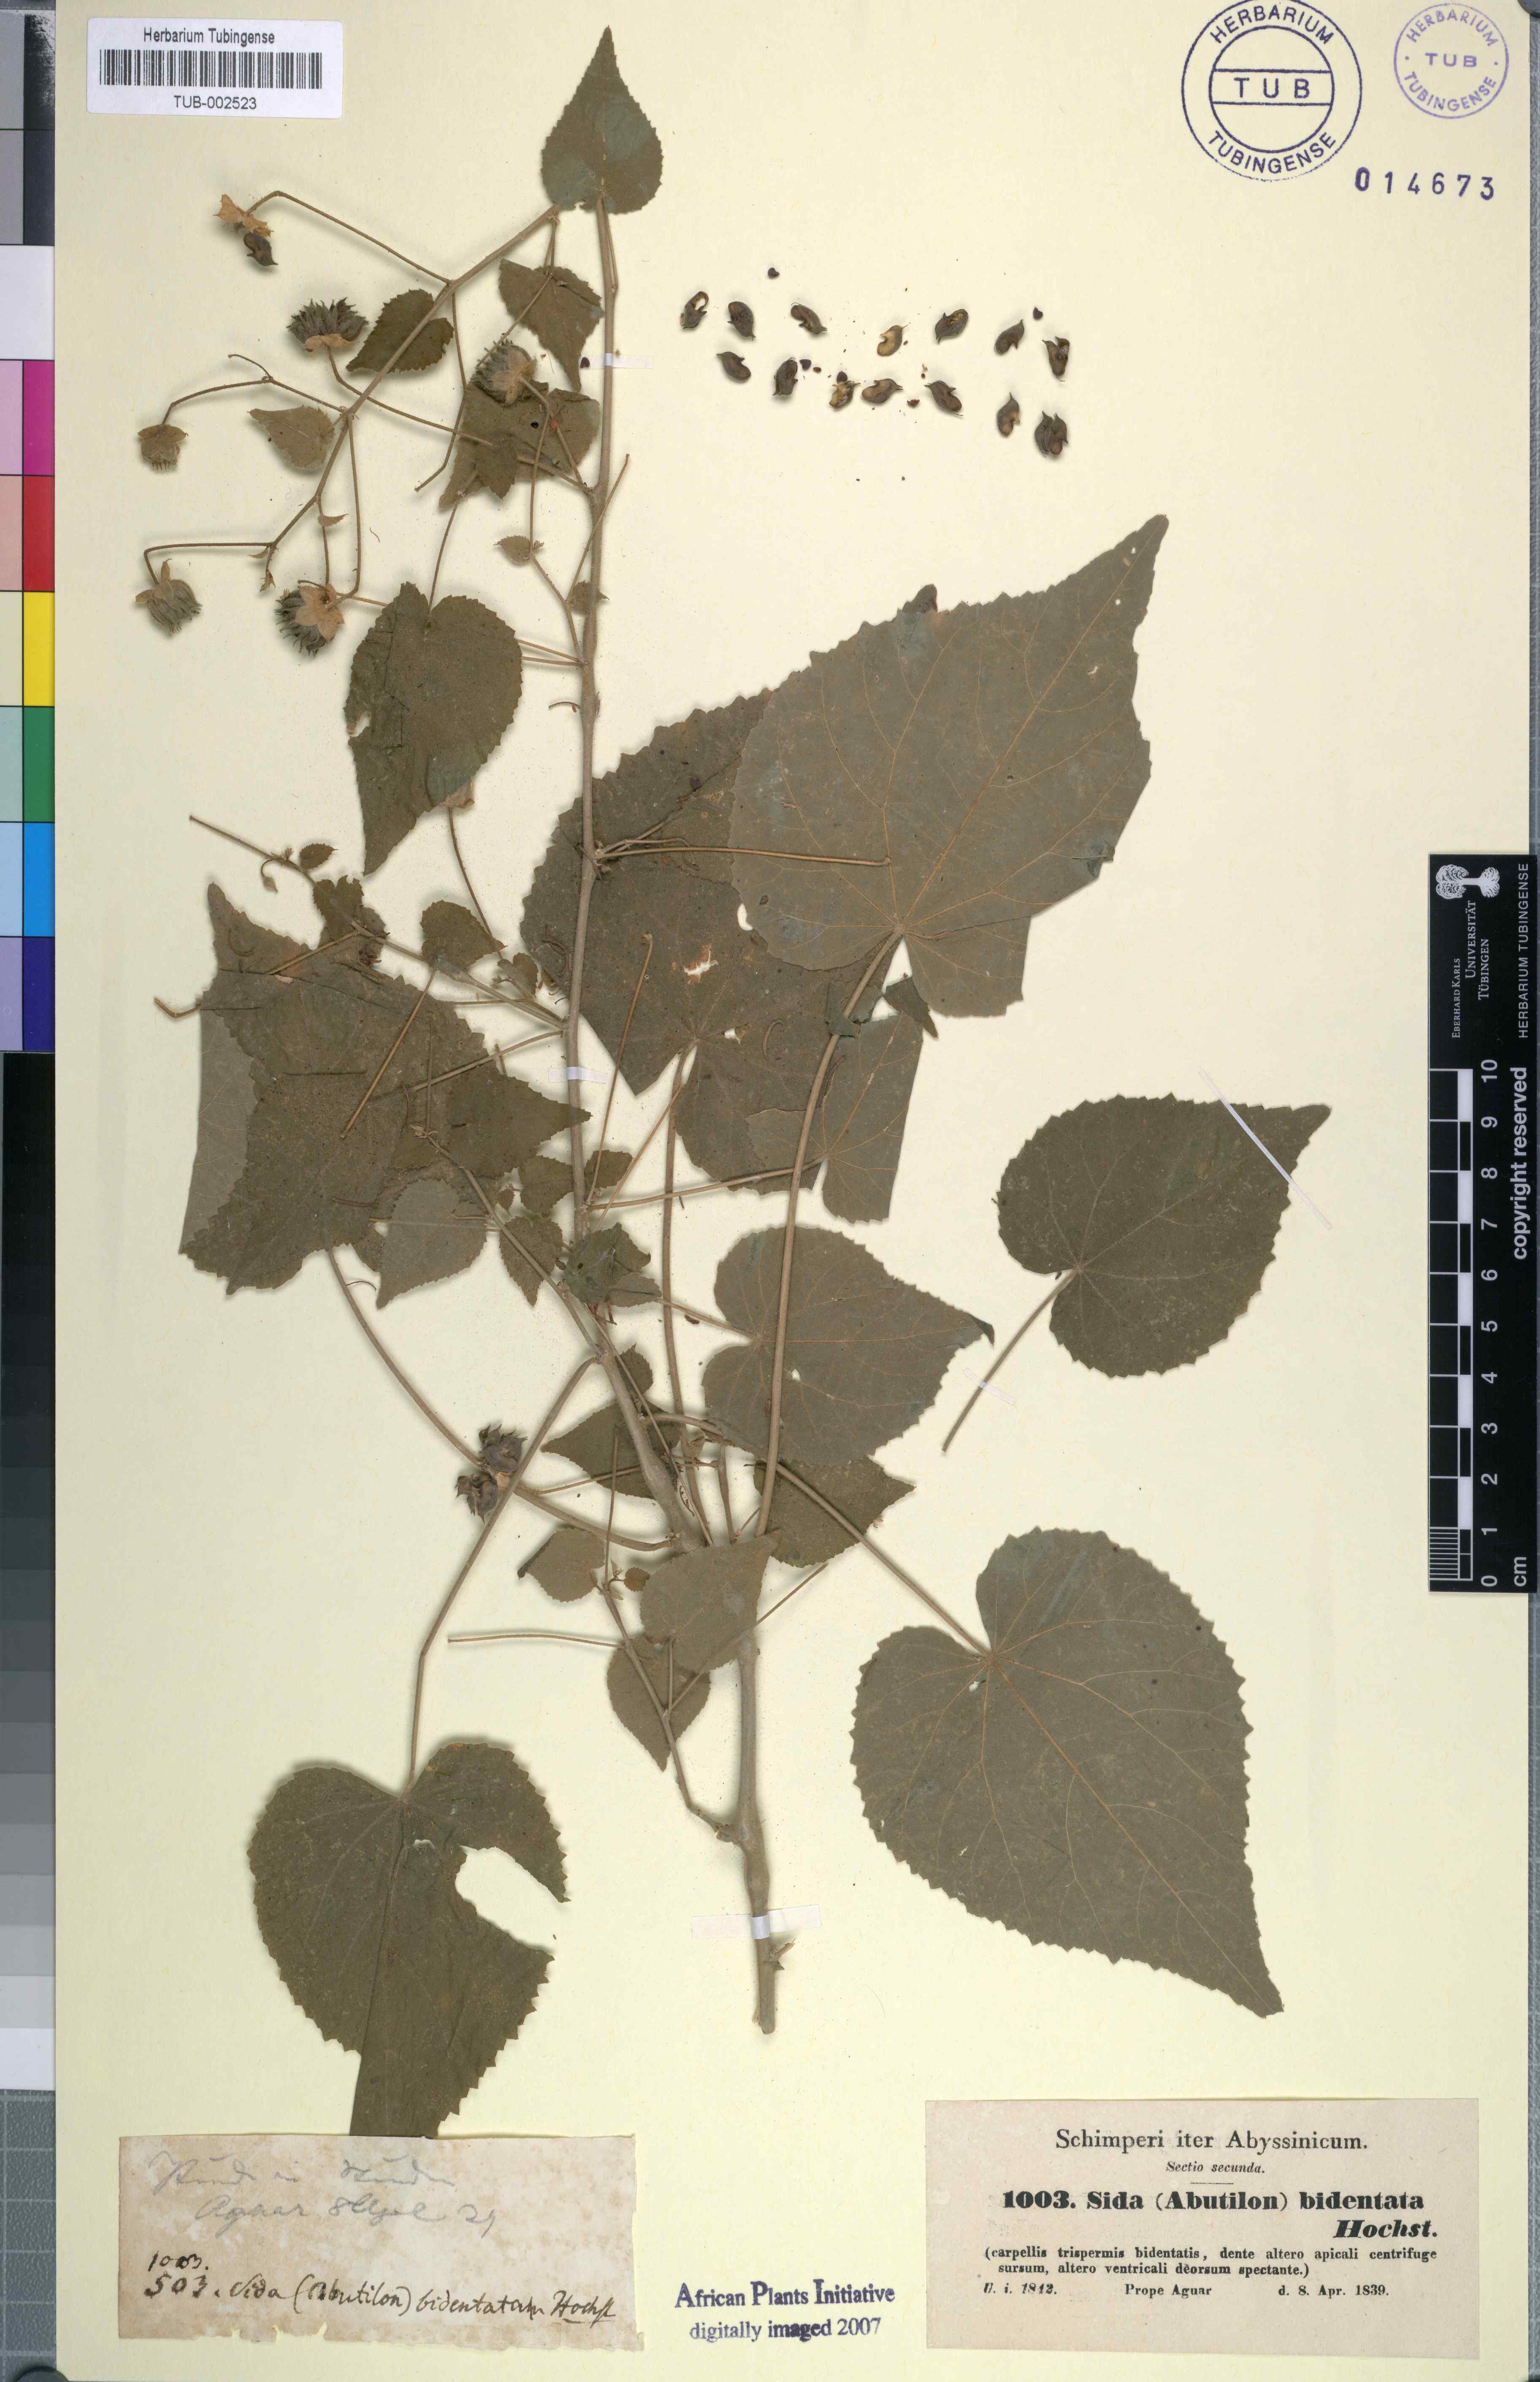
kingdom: Plantae
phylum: Tracheophyta
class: Magnoliopsida
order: Malvales
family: Malvaceae
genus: Abutilon
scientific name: Abutilon bidentatum
